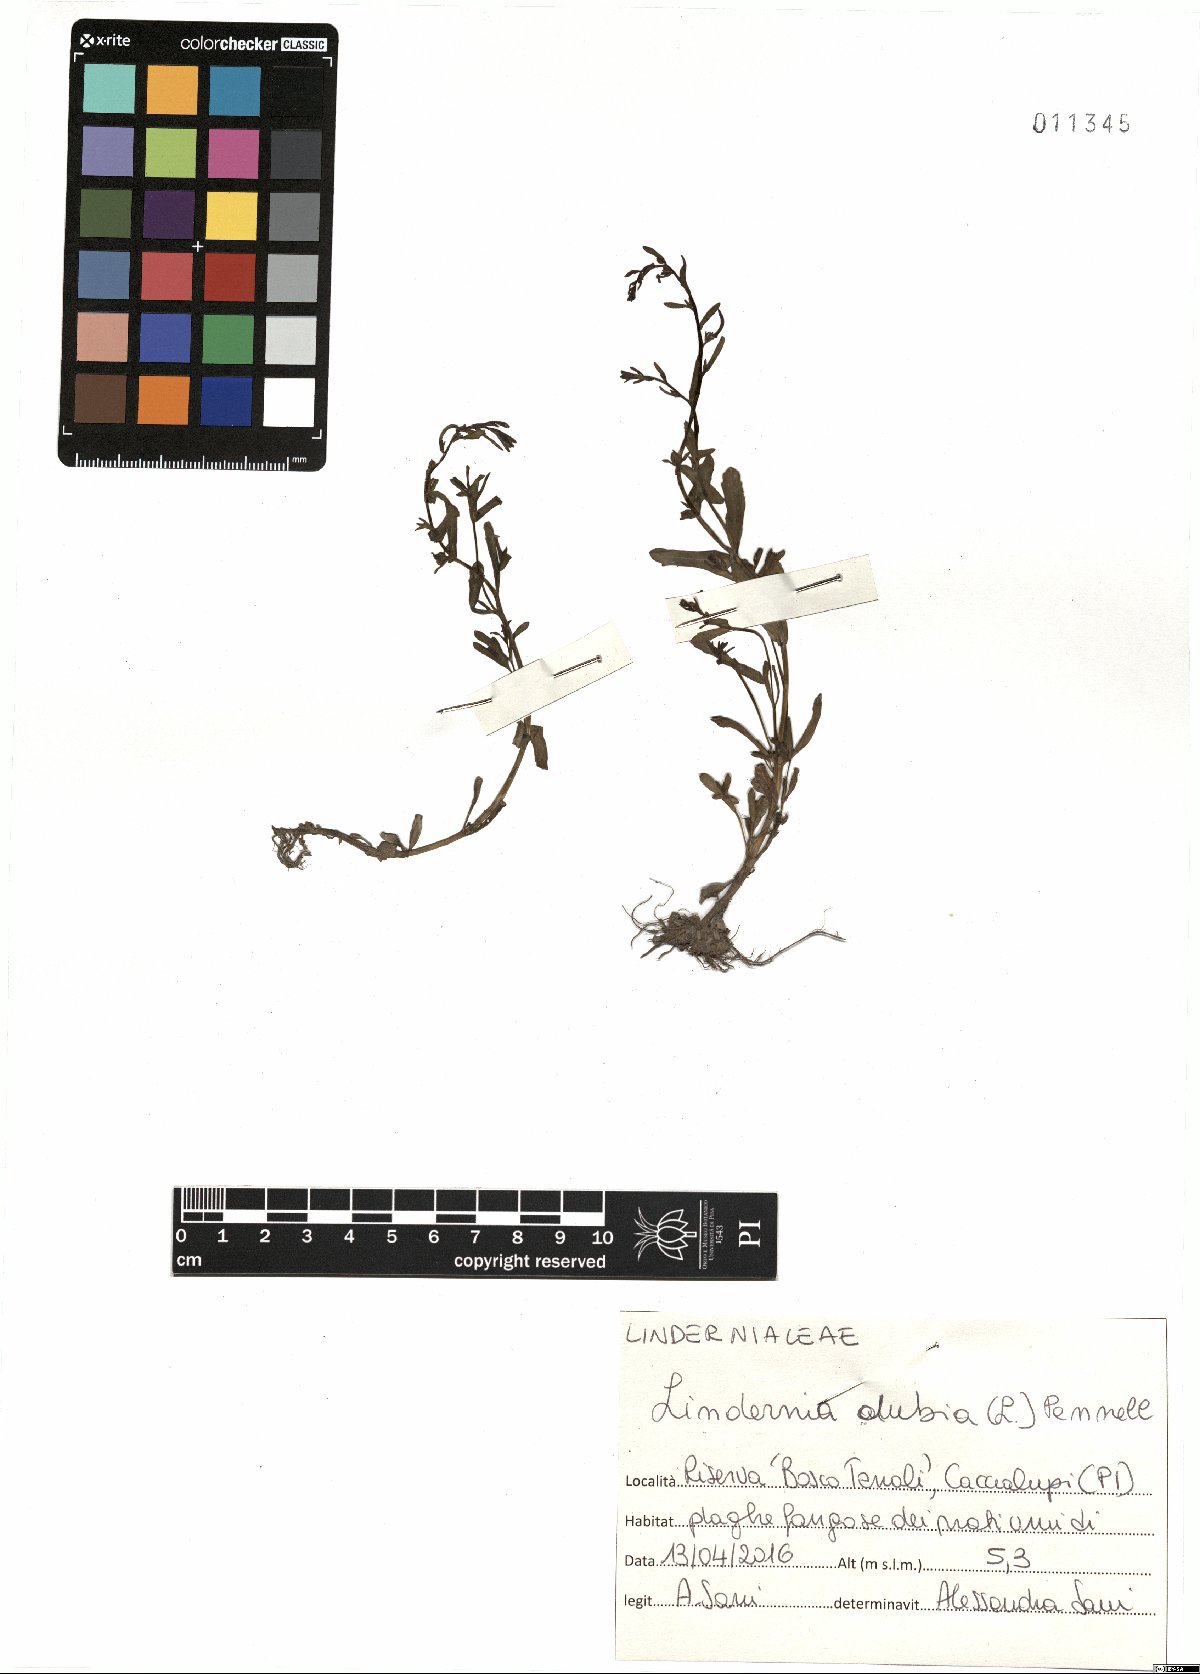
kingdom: Plantae
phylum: Tracheophyta
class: Magnoliopsida
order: Lamiales
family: Linderniaceae
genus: Lindernia
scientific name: Lindernia dubia
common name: Annual false pimpernel
